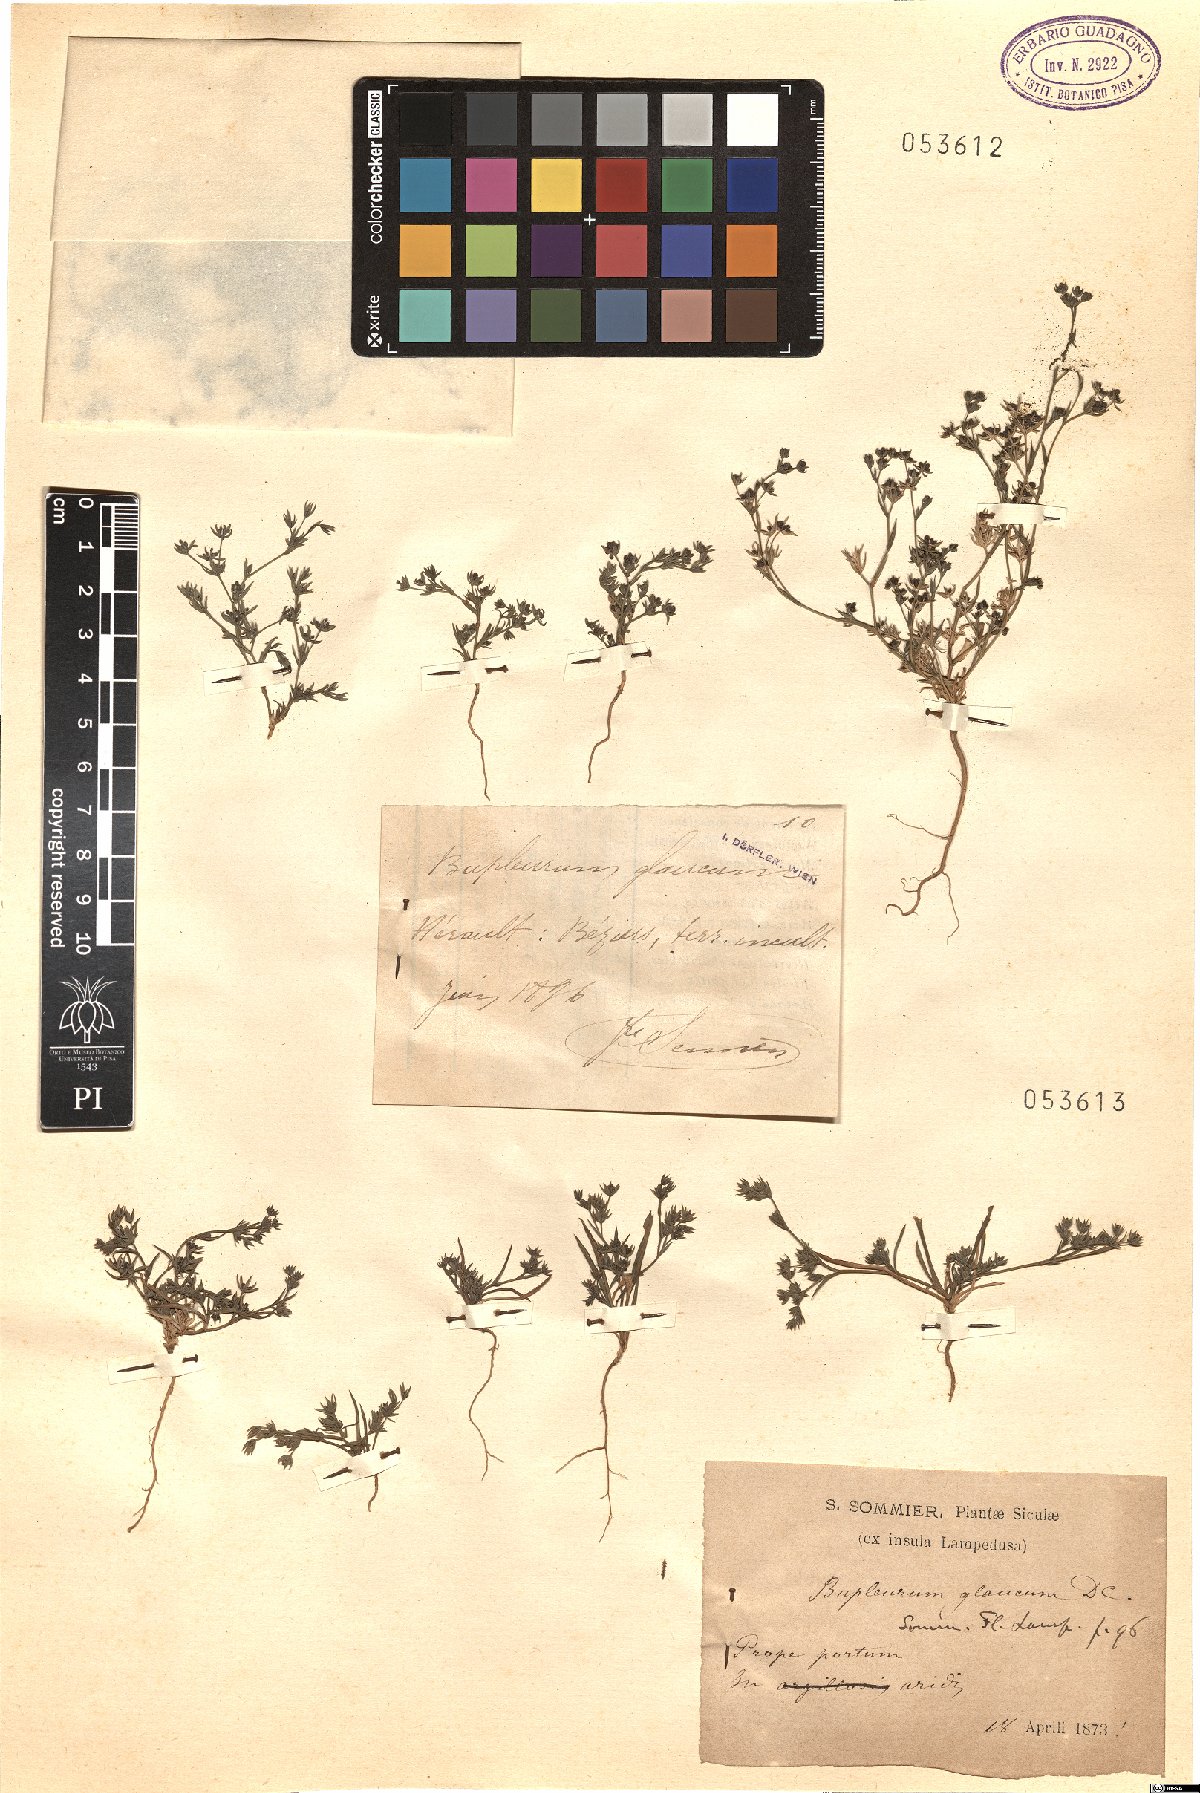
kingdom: Plantae
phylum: Tracheophyta
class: Magnoliopsida
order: Apiales
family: Apiaceae
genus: Bupleurum
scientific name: Bupleurum semicompositum
